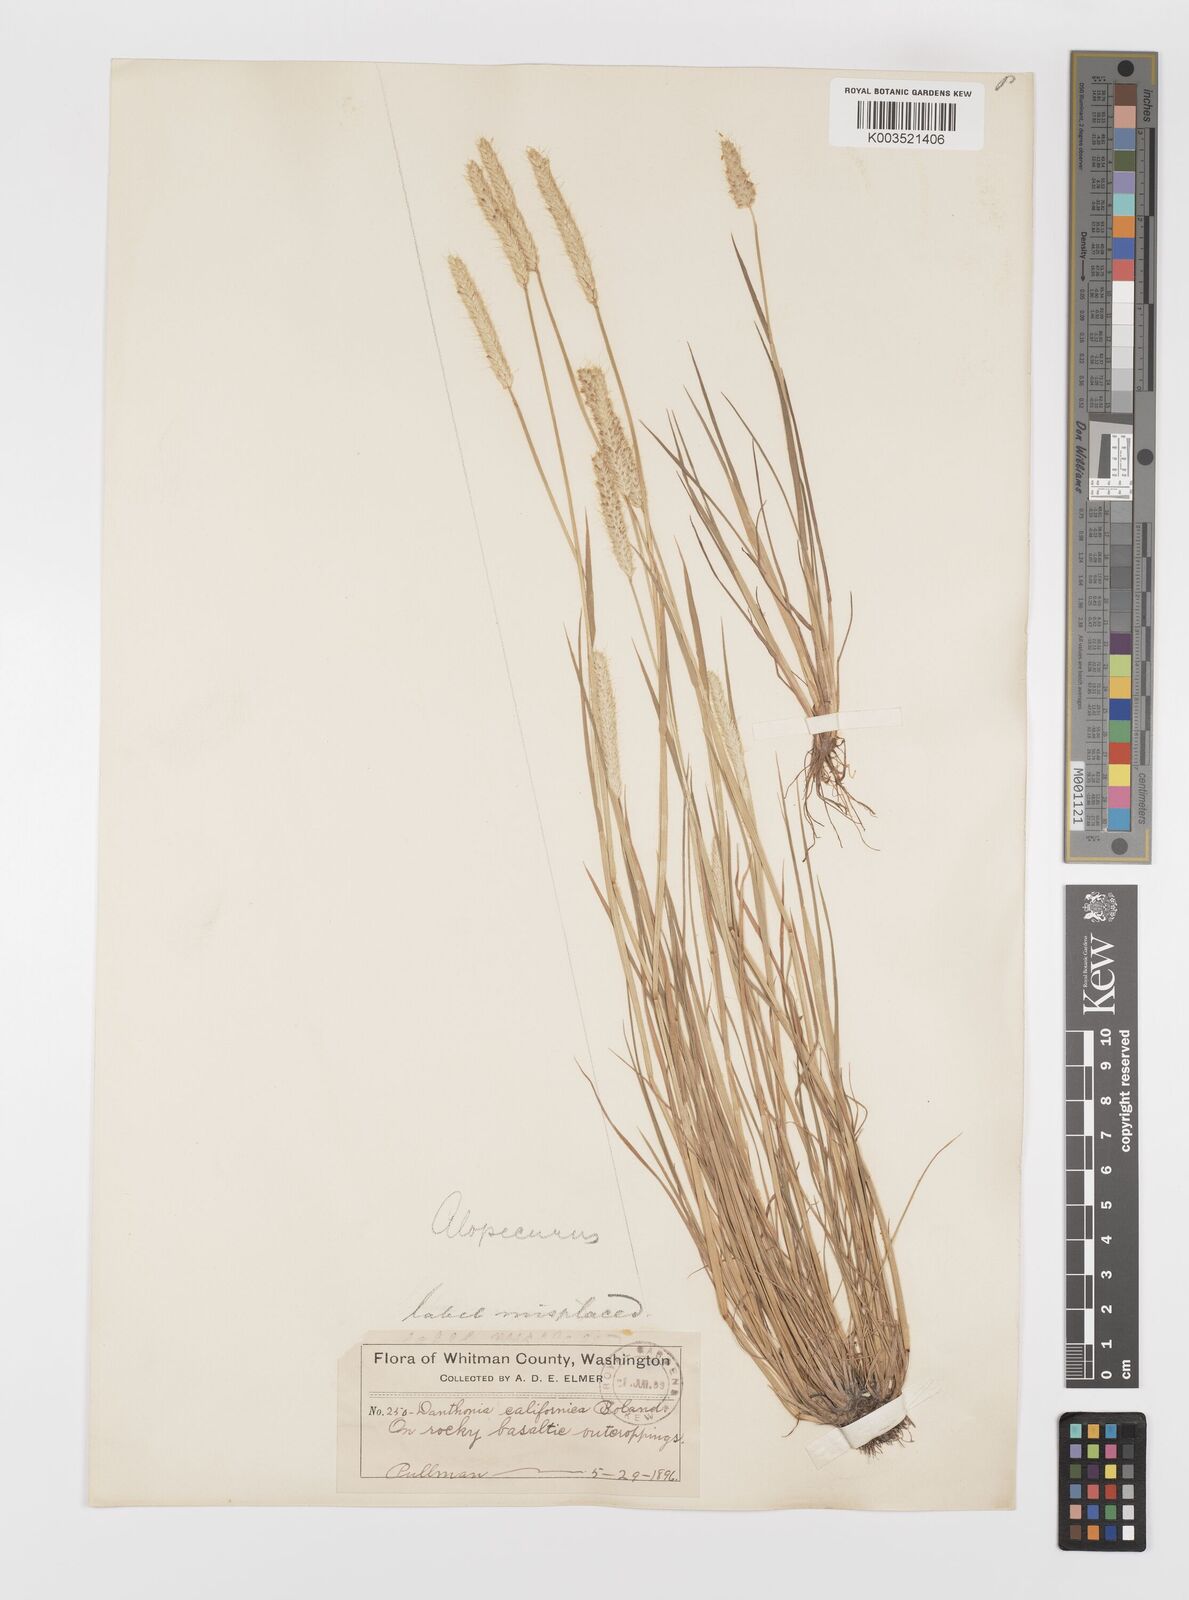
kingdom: Plantae
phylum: Tracheophyta
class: Liliopsida
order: Poales
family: Poaceae
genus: Alopecurus
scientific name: Alopecurus geniculatus
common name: Water foxtail
